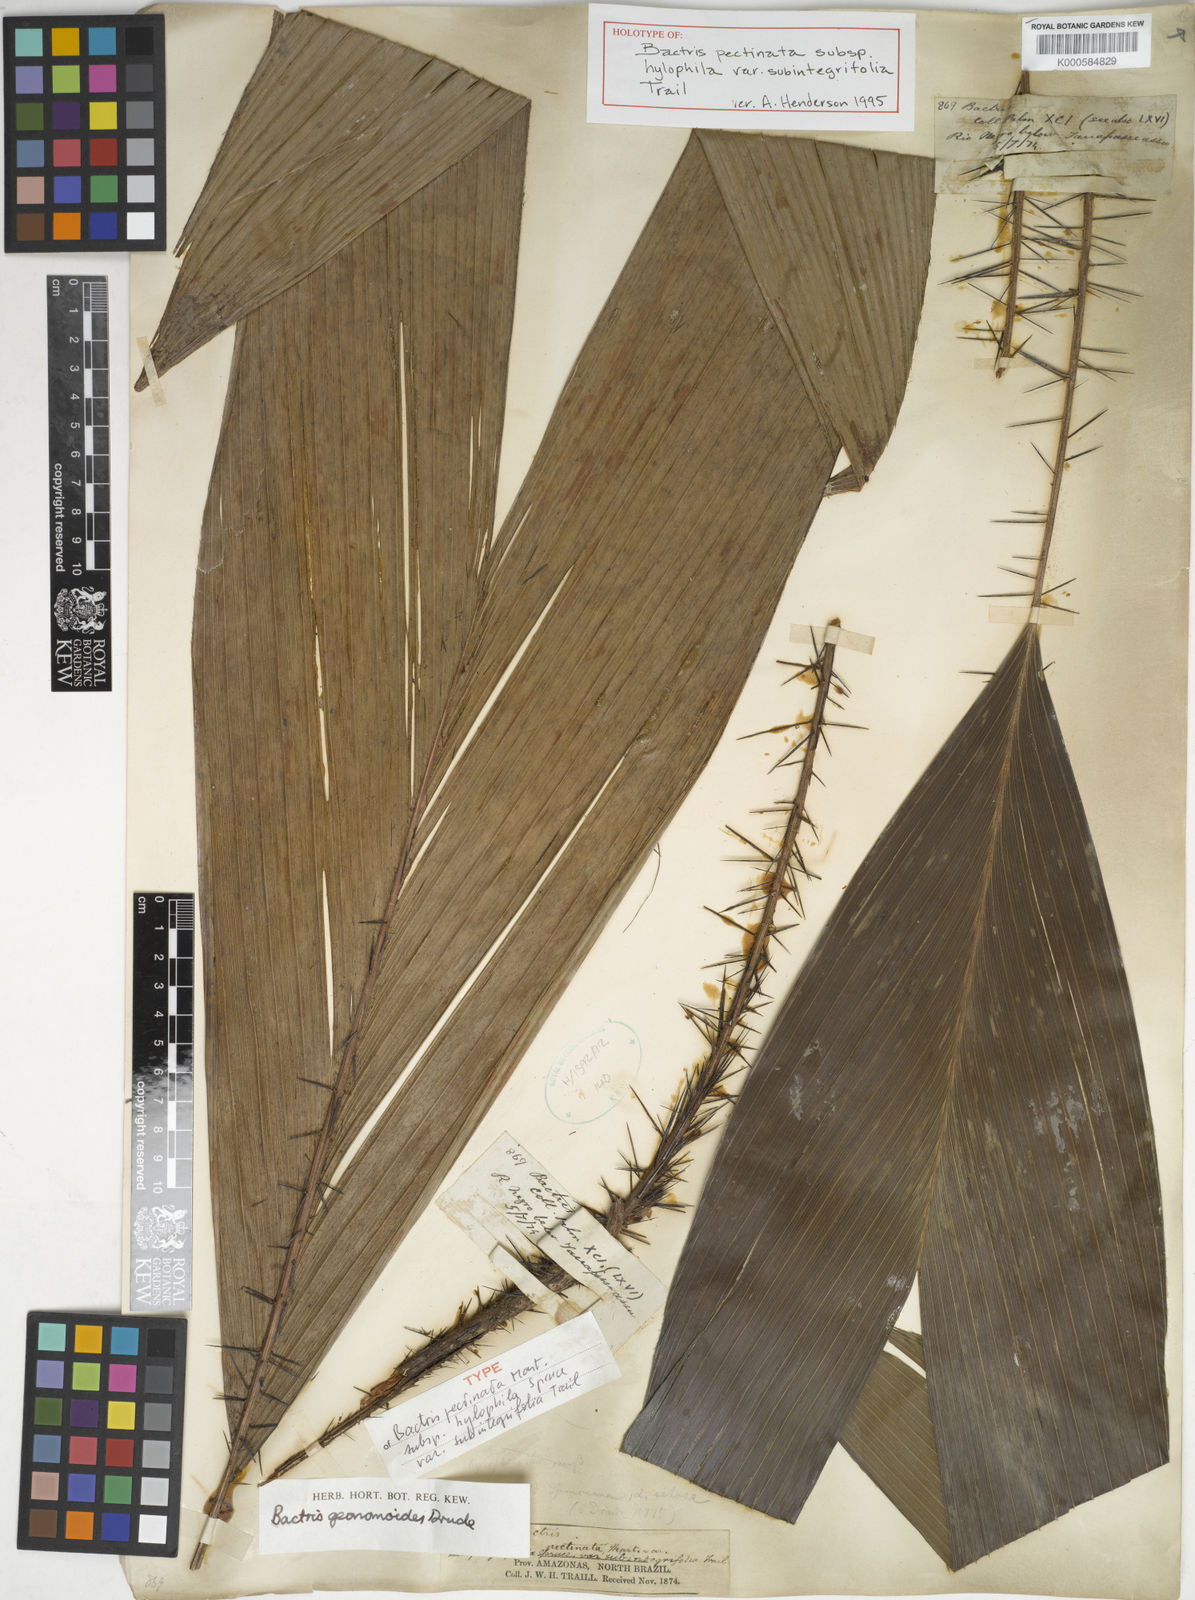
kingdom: Plantae
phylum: Tracheophyta
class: Liliopsida
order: Arecales
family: Arecaceae
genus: Bactris
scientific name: Bactris hirta
